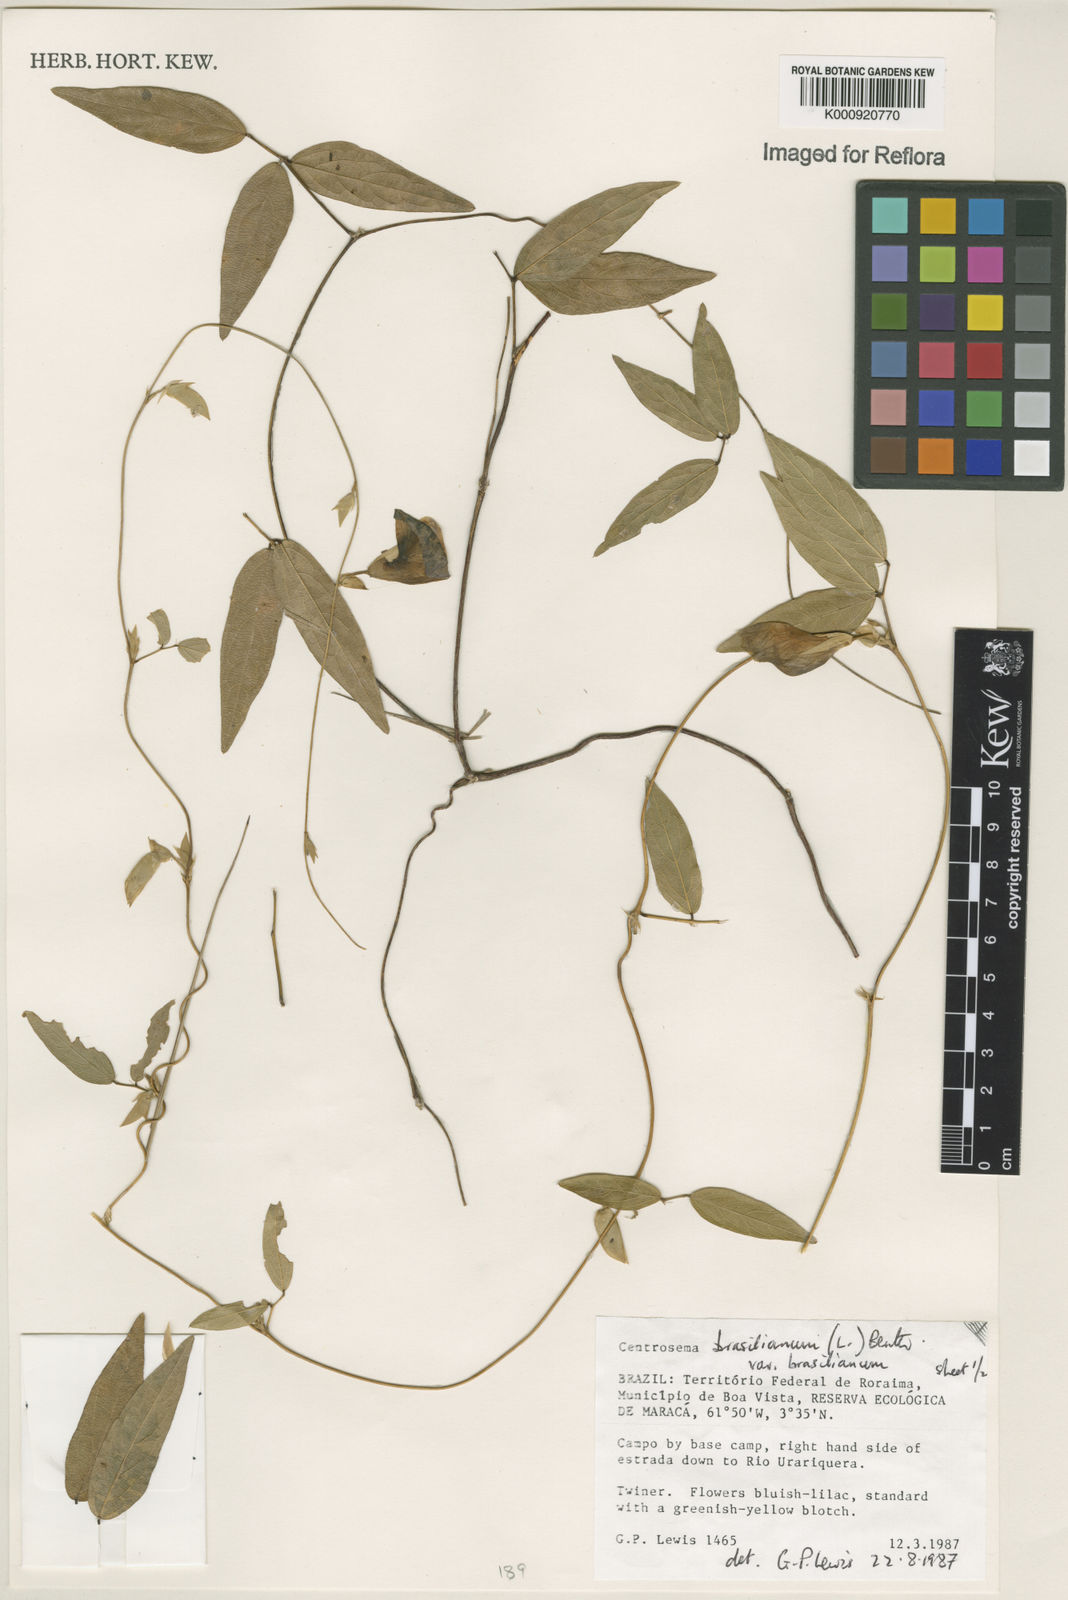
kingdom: Plantae
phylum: Tracheophyta
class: Magnoliopsida
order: Fabales
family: Fabaceae
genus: Centrosema
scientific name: Centrosema brasilianum
